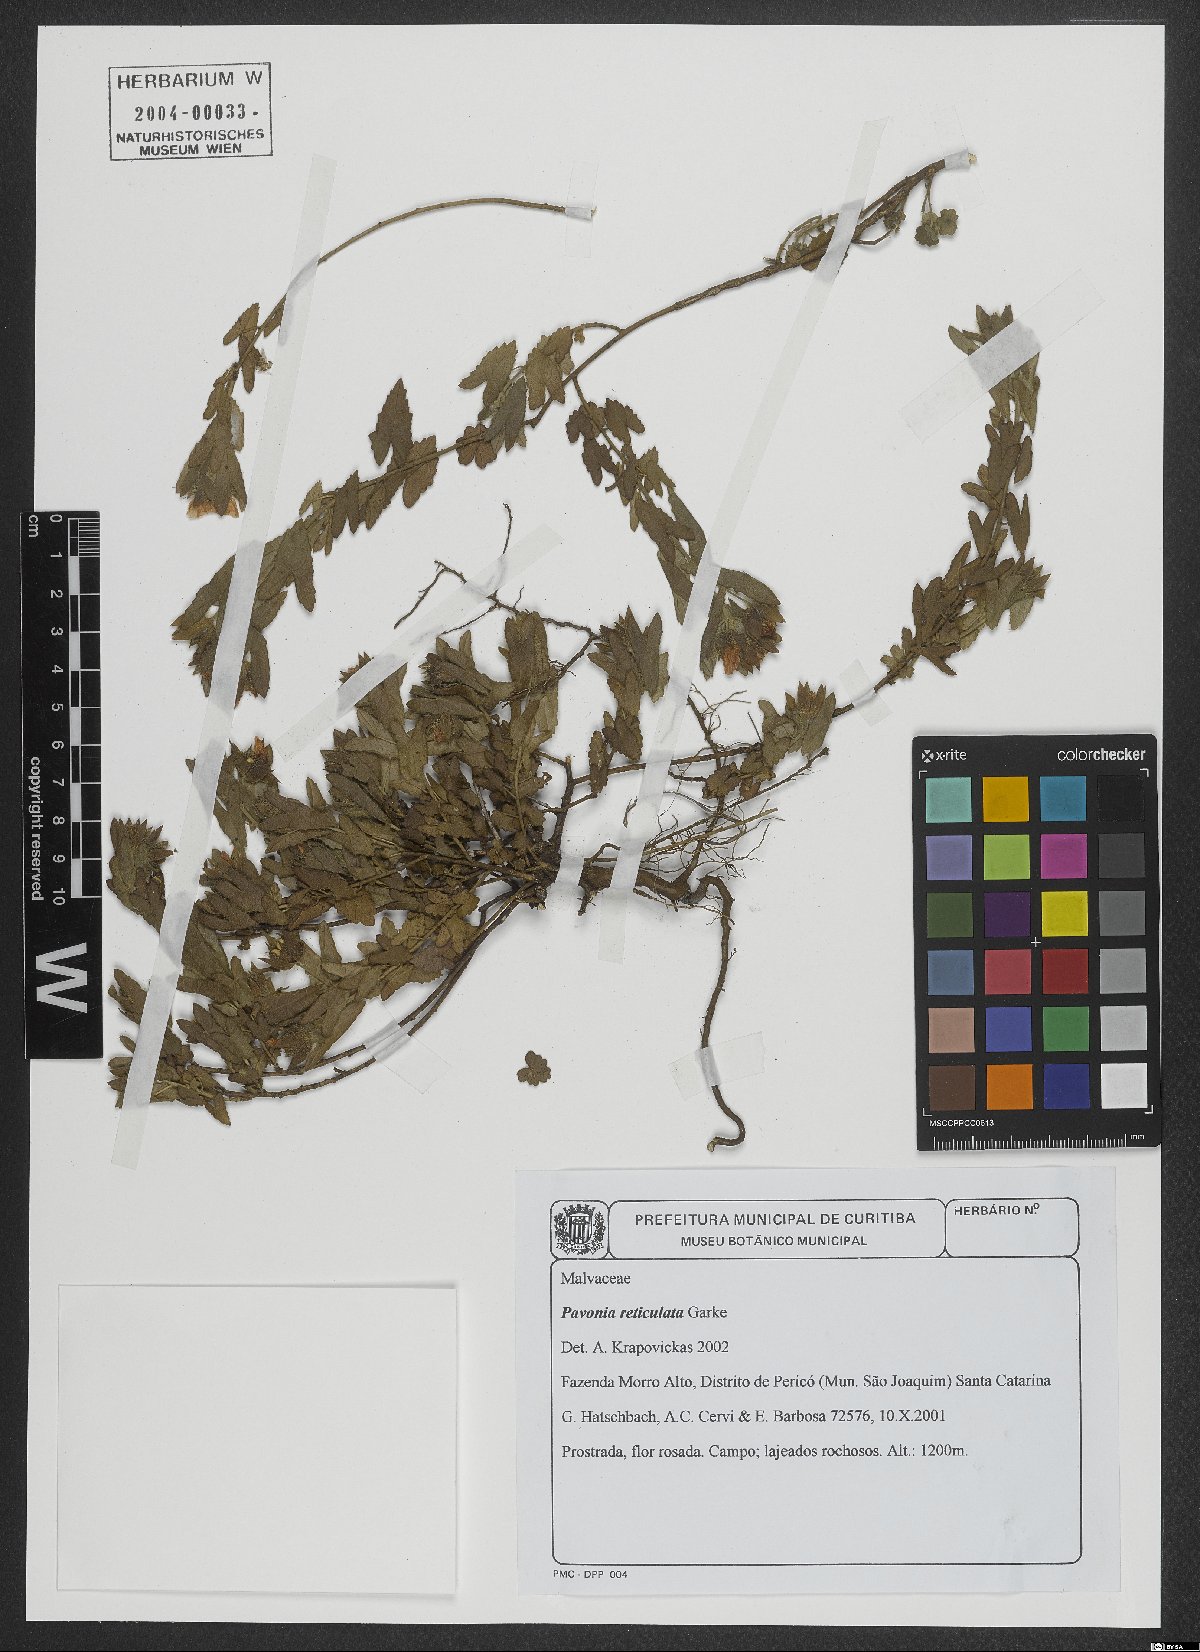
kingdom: Plantae
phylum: Tracheophyta
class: Magnoliopsida
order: Malvales
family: Malvaceae
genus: Pavonia
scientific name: Pavonia reticulata
